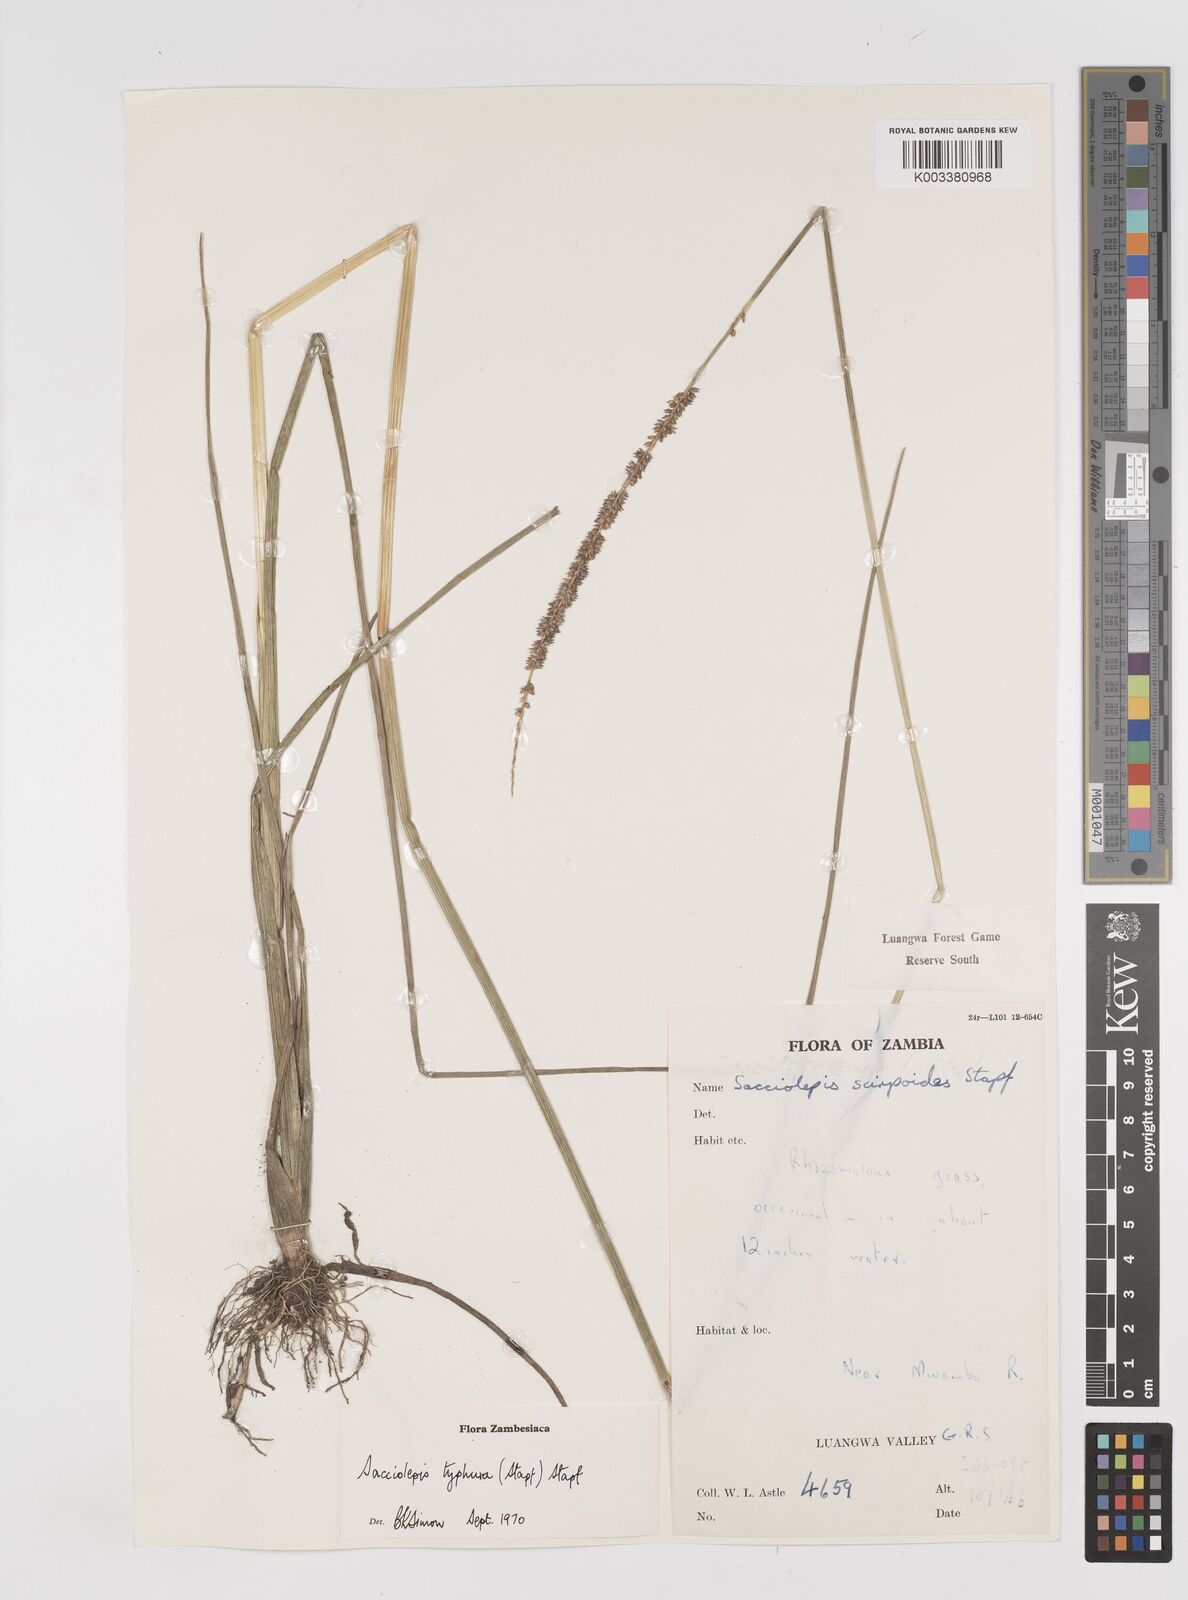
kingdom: Plantae
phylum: Tracheophyta
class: Liliopsida
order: Poales
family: Poaceae
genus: Sacciolepis
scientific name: Sacciolepis typhura
